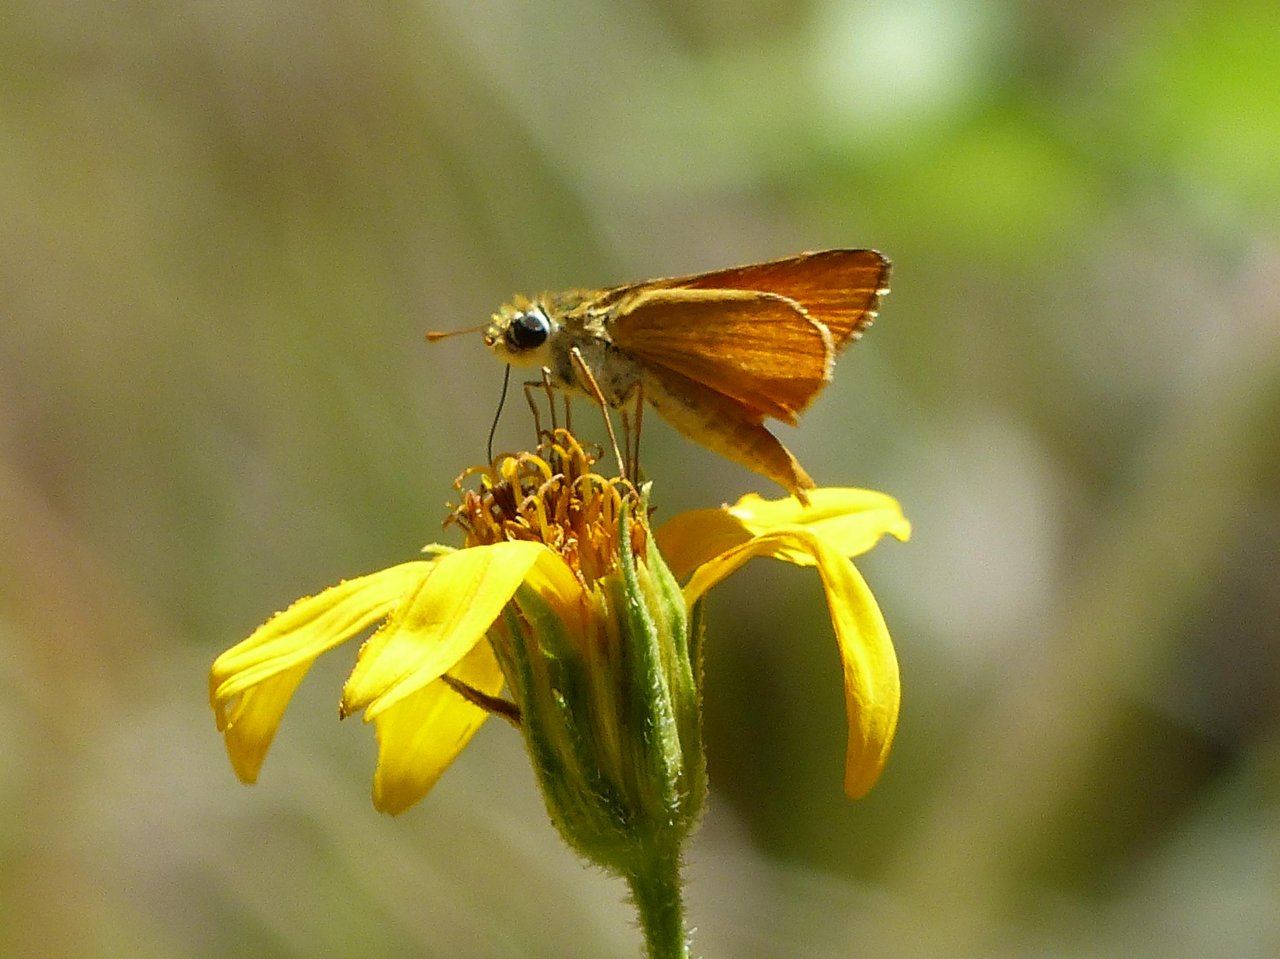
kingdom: Animalia
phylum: Arthropoda
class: Insecta
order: Lepidoptera
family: Hesperiidae
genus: Copaeodes
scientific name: Copaeodes aurantiaca
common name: Orange Skipperling
